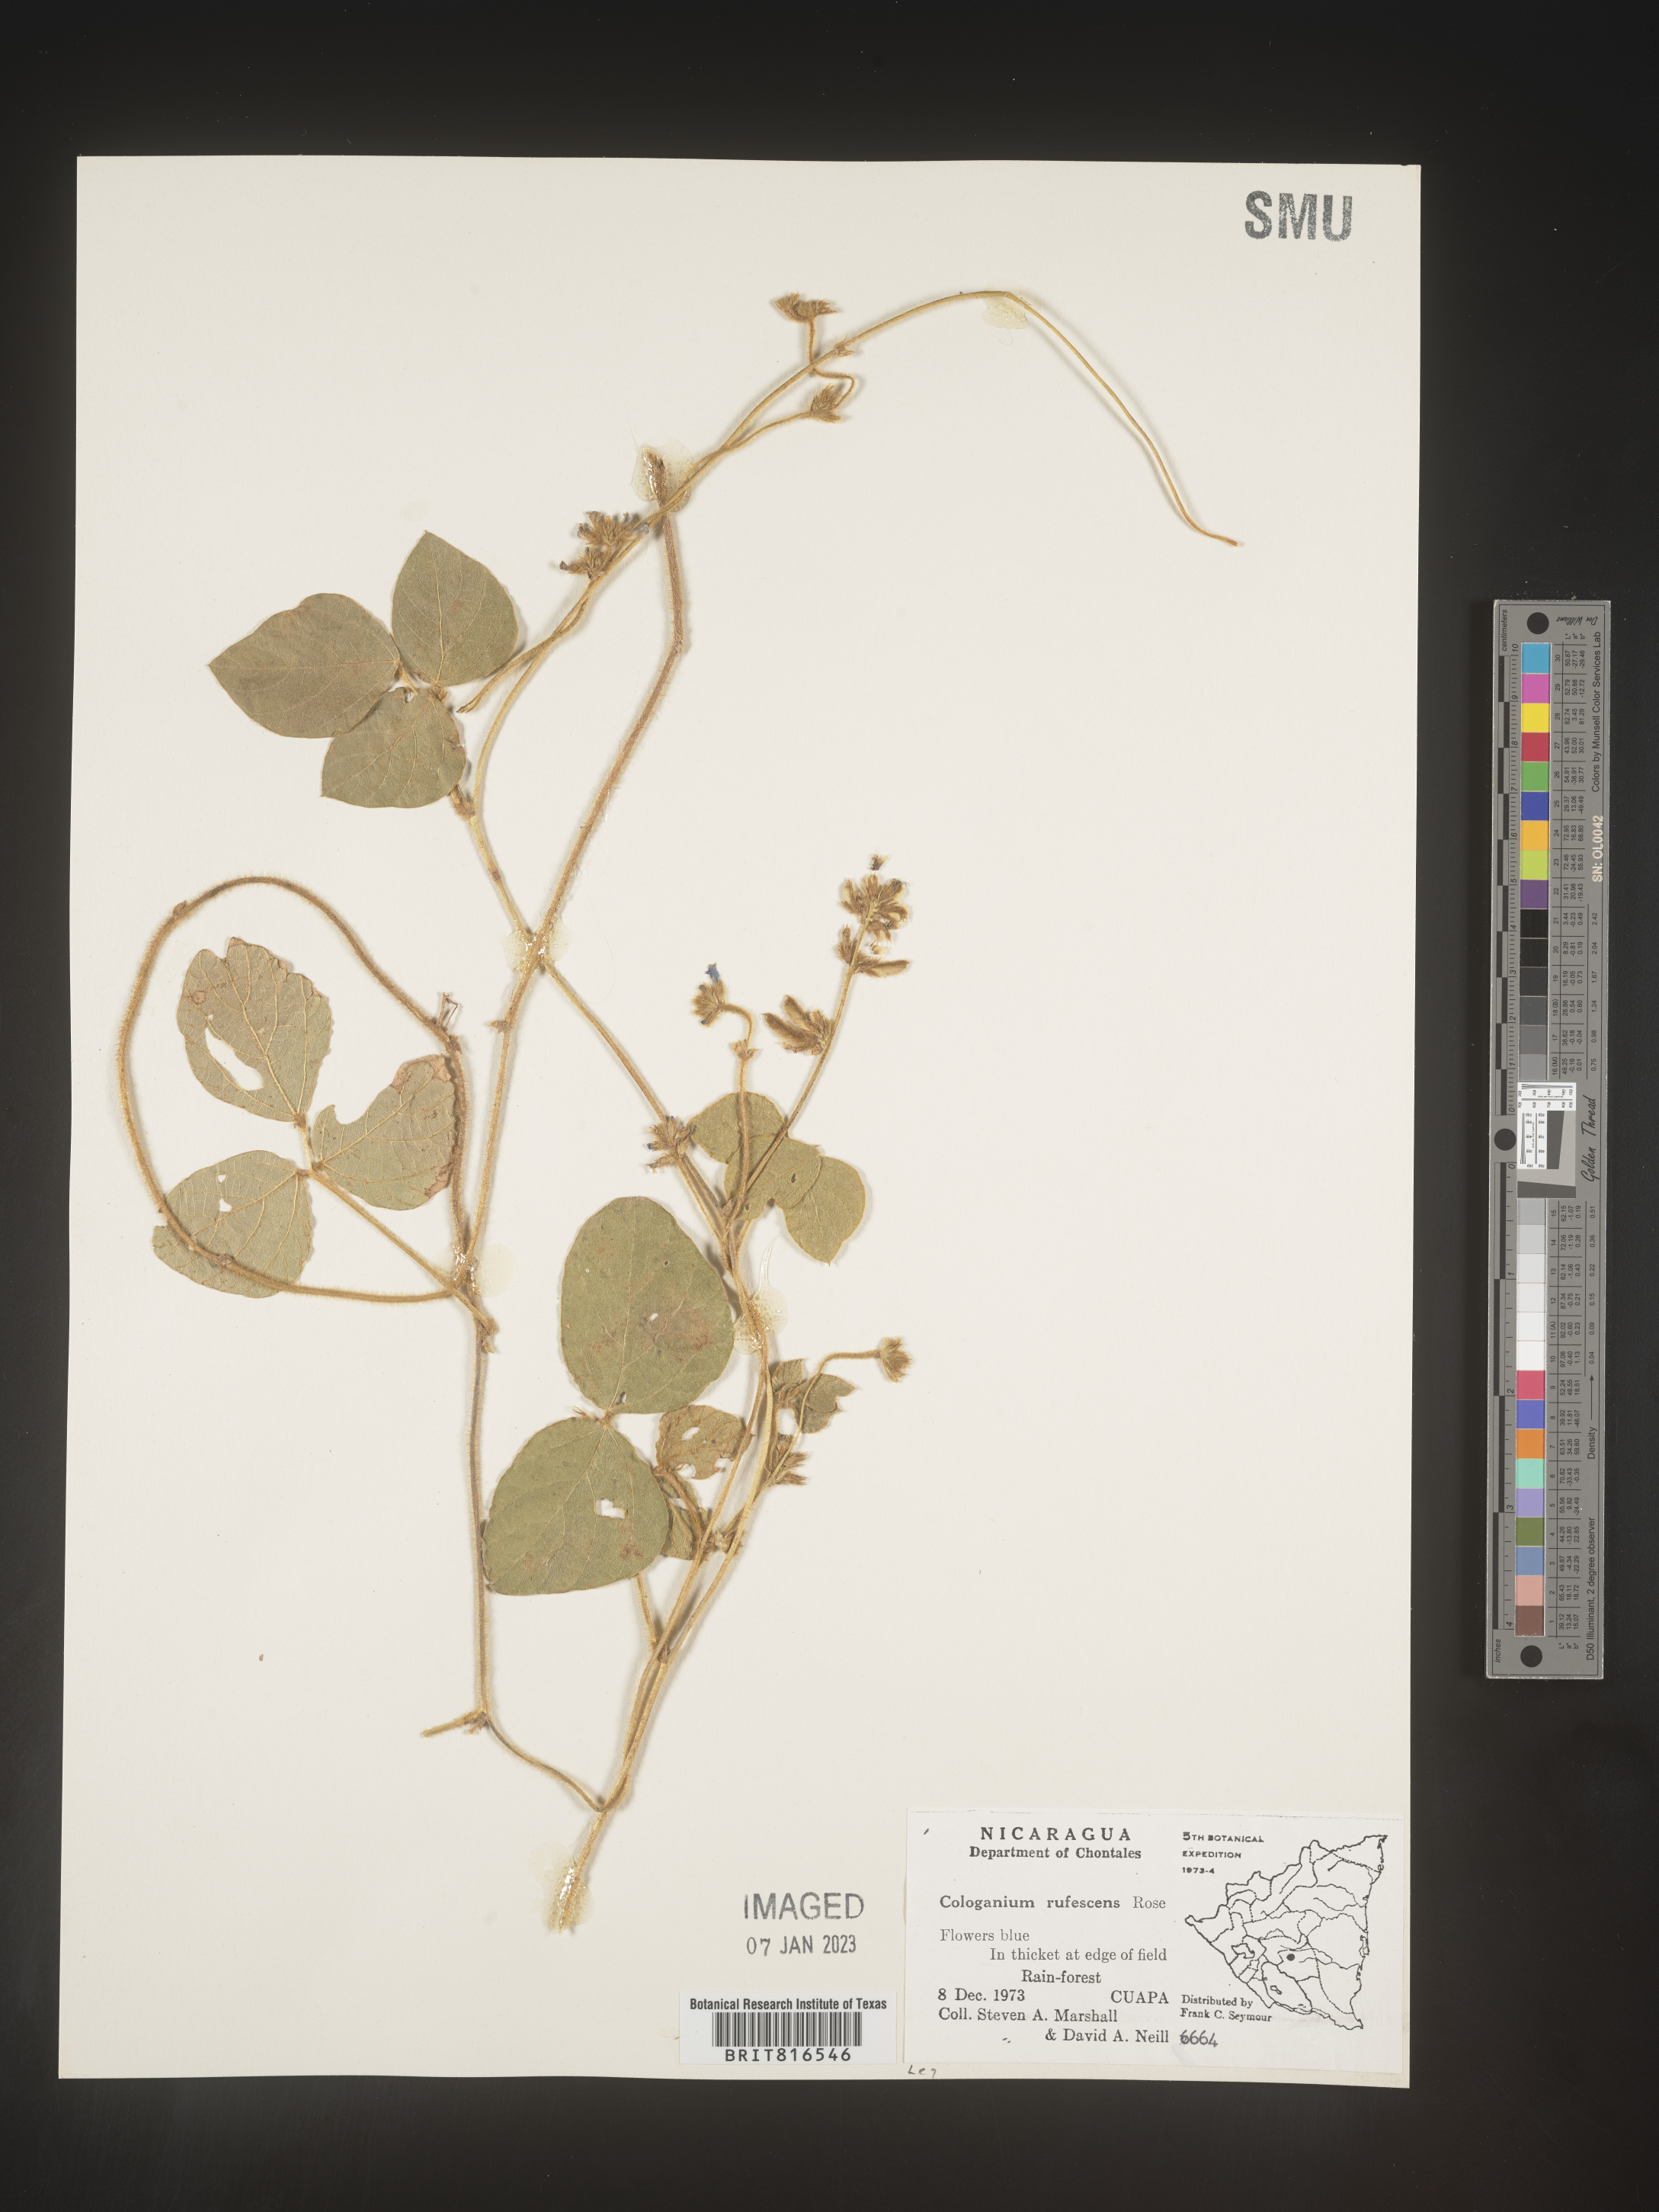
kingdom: Plantae
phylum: Tracheophyta
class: Magnoliopsida
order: Fabales
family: Fabaceae
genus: Cologania
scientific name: Cologania obovata
